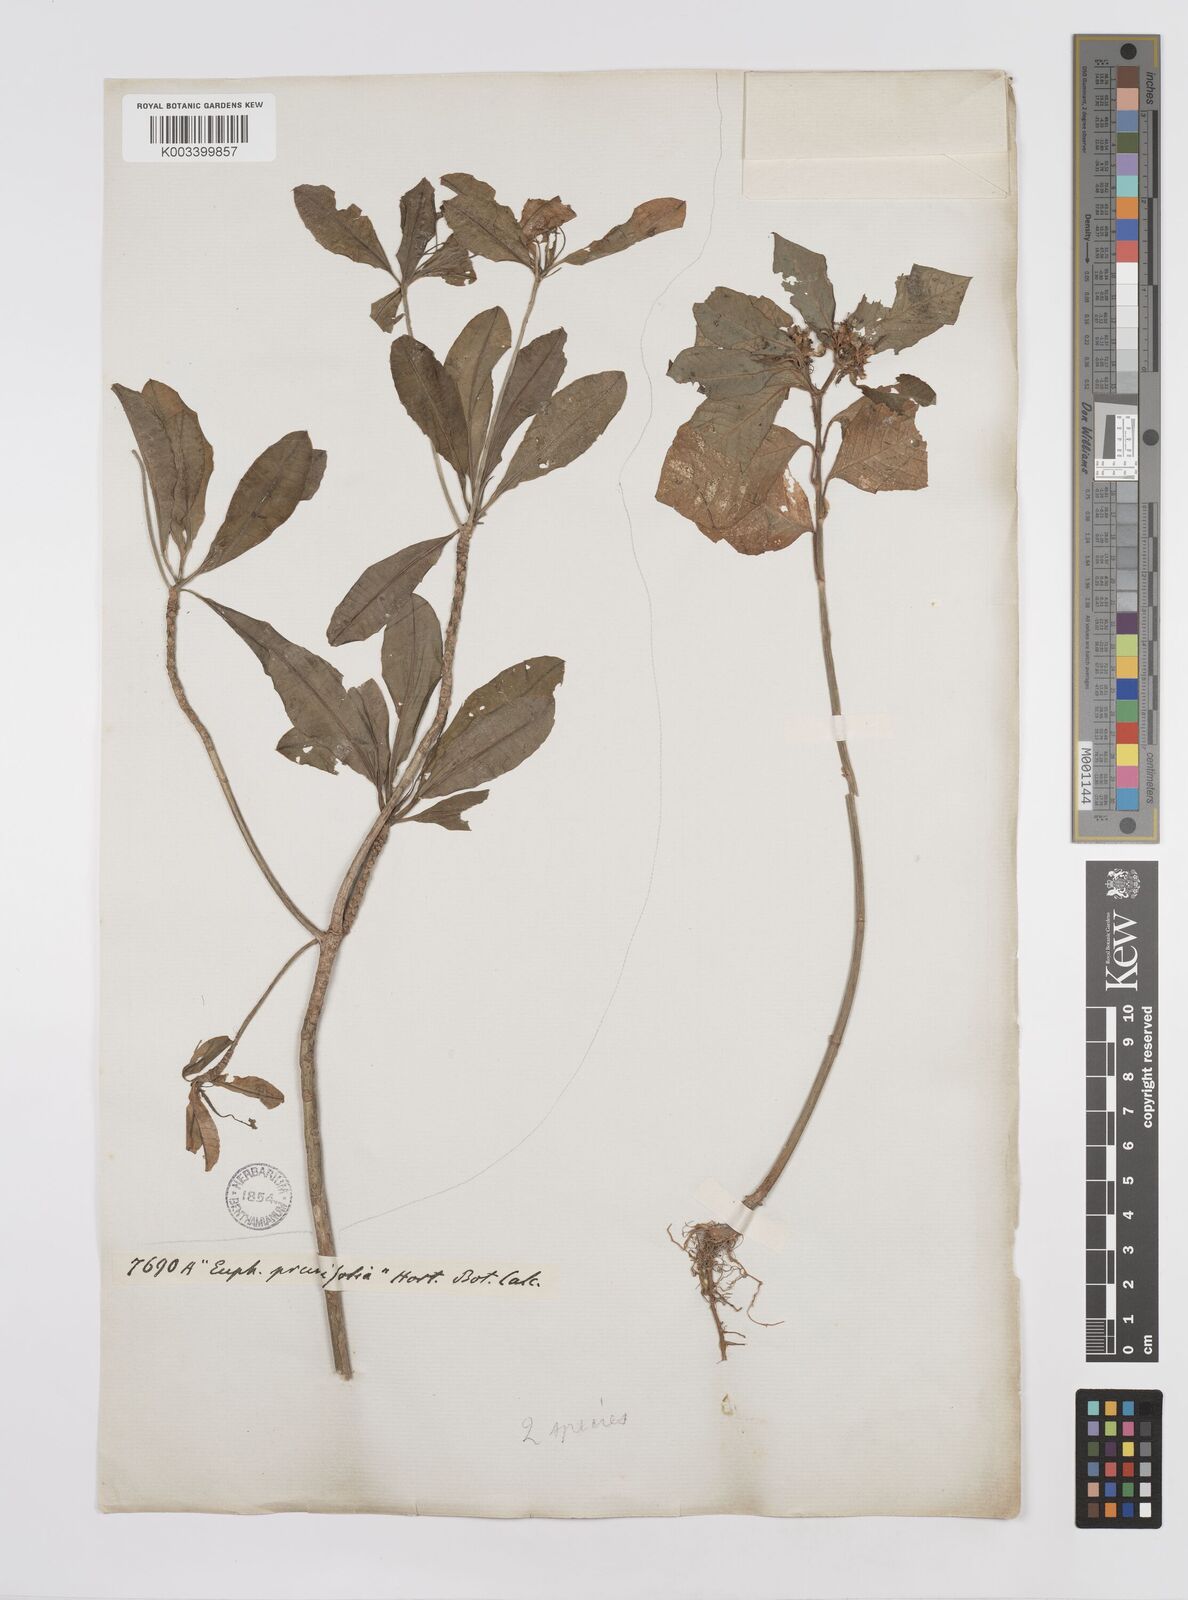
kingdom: Plantae
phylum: Tracheophyta
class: Magnoliopsida
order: Malpighiales
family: Euphorbiaceae
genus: Euphorbia
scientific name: Euphorbia heterophylla
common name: Mexican fireplant
